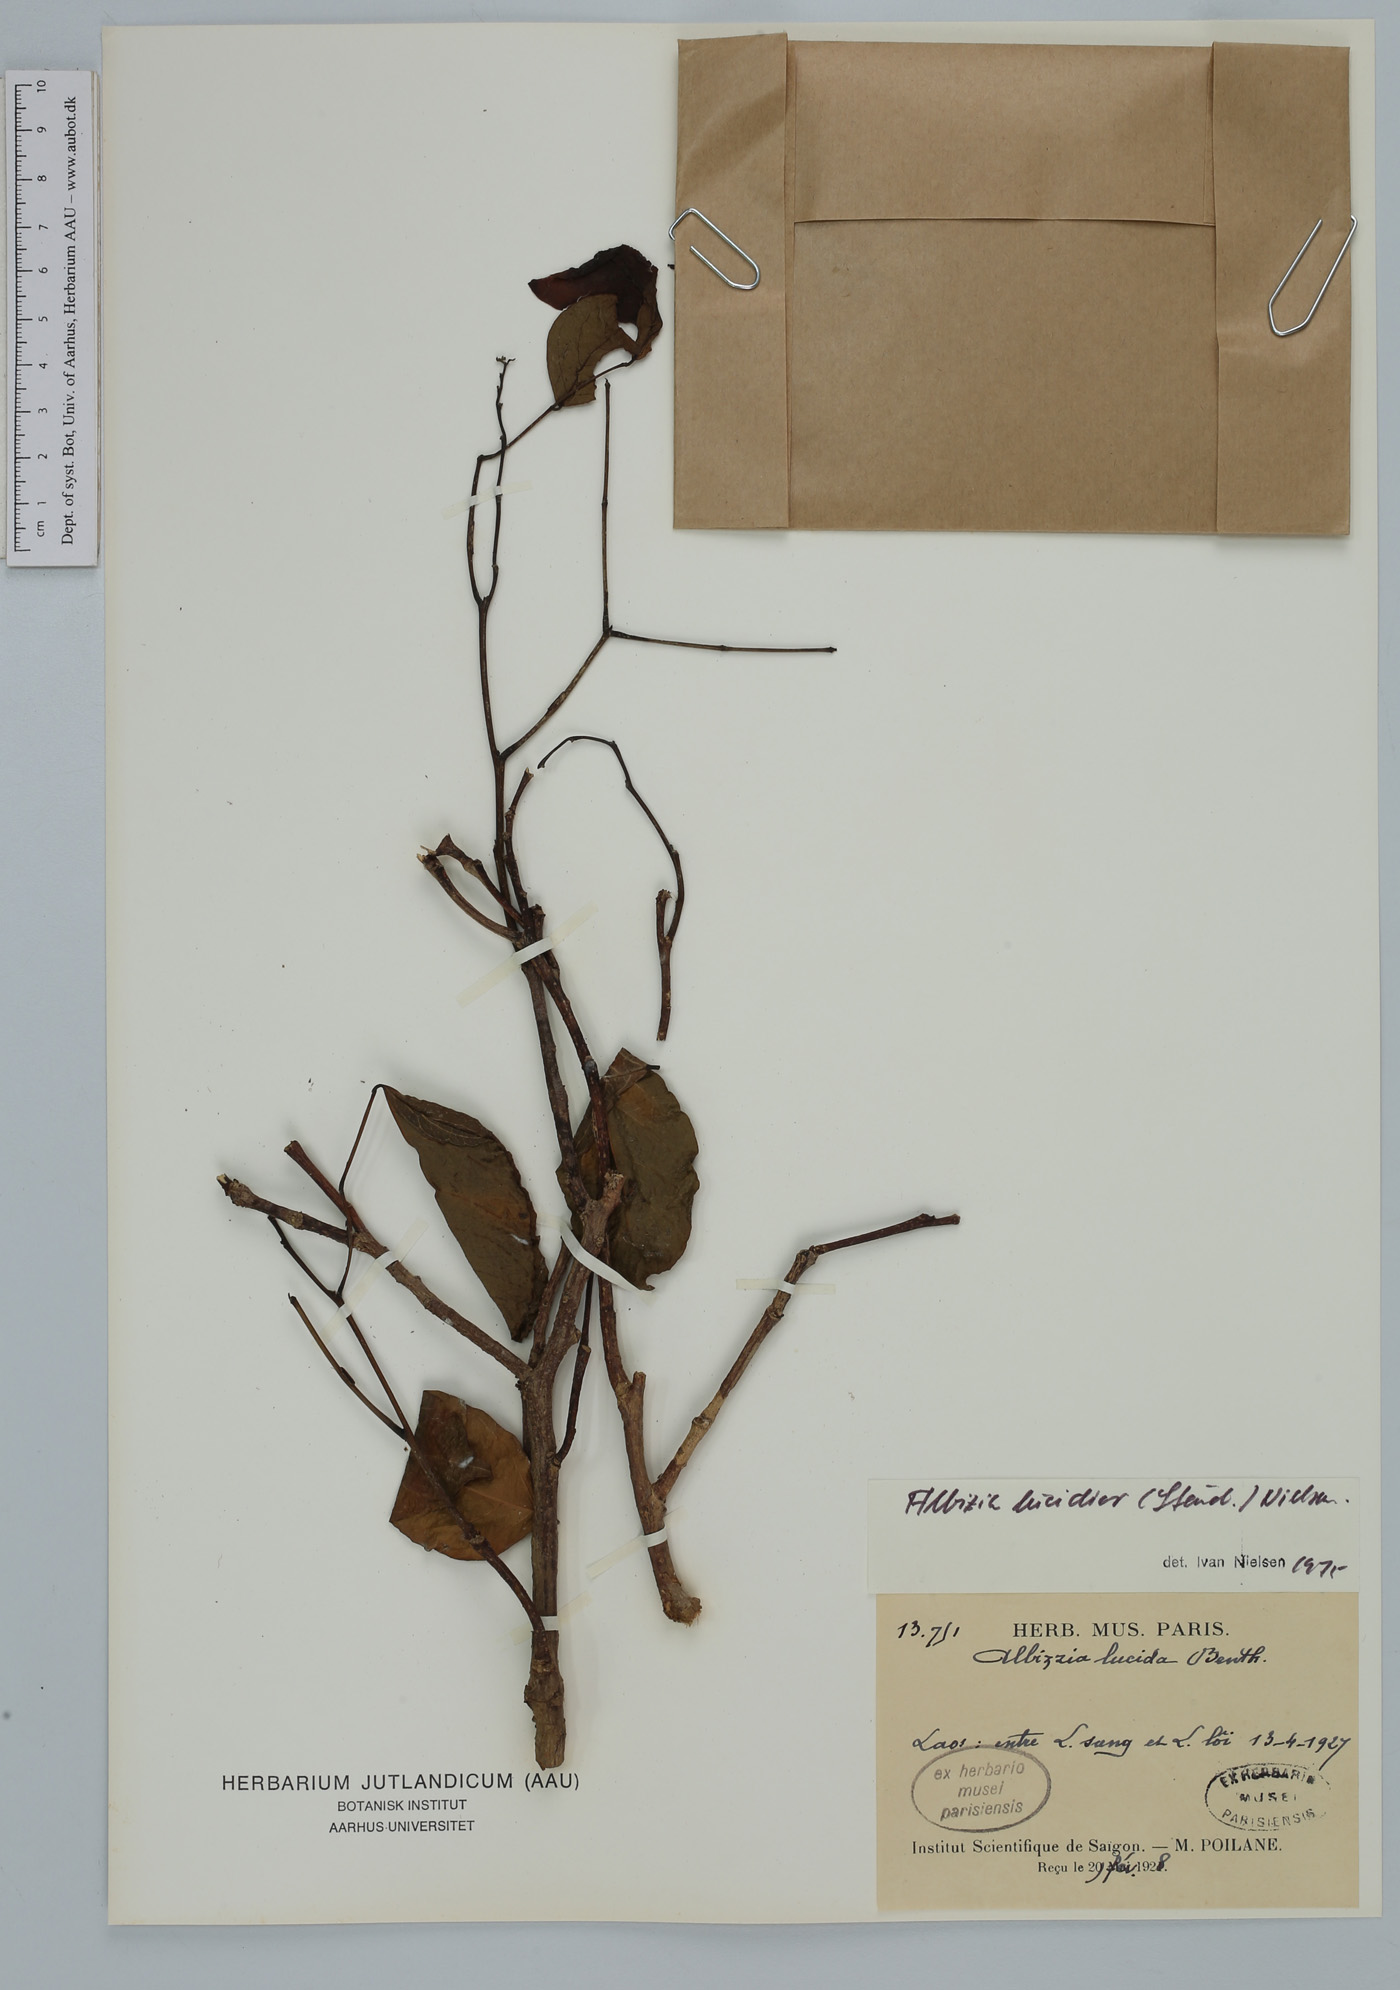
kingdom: Plantae
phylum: Tracheophyta
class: Magnoliopsida
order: Fabales
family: Fabaceae
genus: Albizia
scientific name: Albizia lucidior
